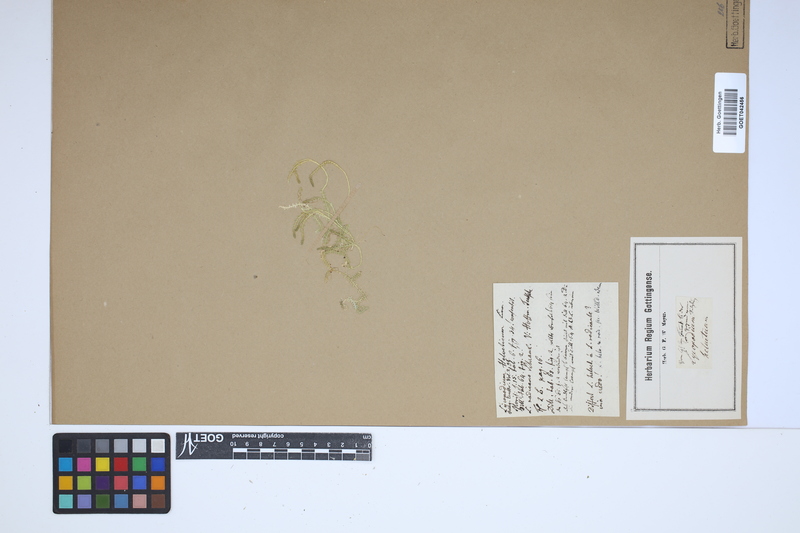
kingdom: Plantae
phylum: Tracheophyta
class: Lycopodiopsida
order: Selaginellales
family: Selaginellaceae
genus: Selaginella
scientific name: Selaginella helvetica
